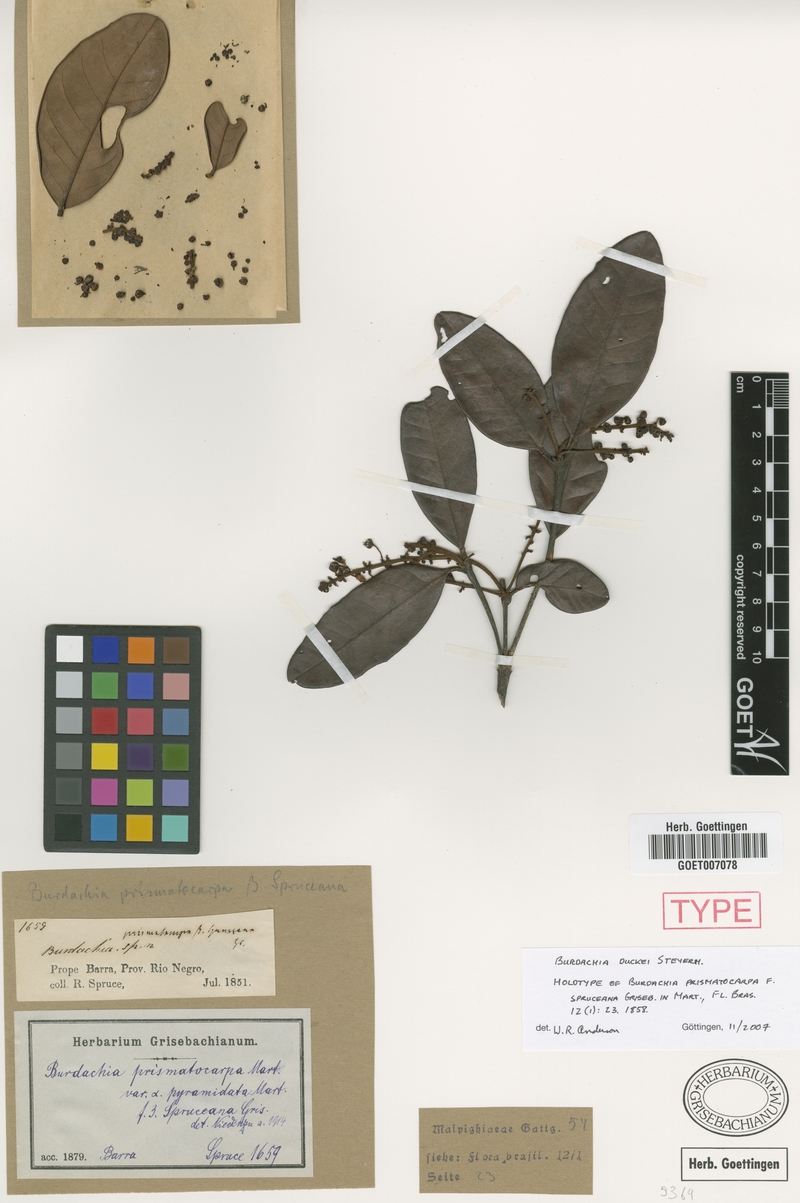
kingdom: Plantae
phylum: Tracheophyta
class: Magnoliopsida
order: Malpighiales
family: Malpighiaceae
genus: Burdachia
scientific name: Burdachia duckei
